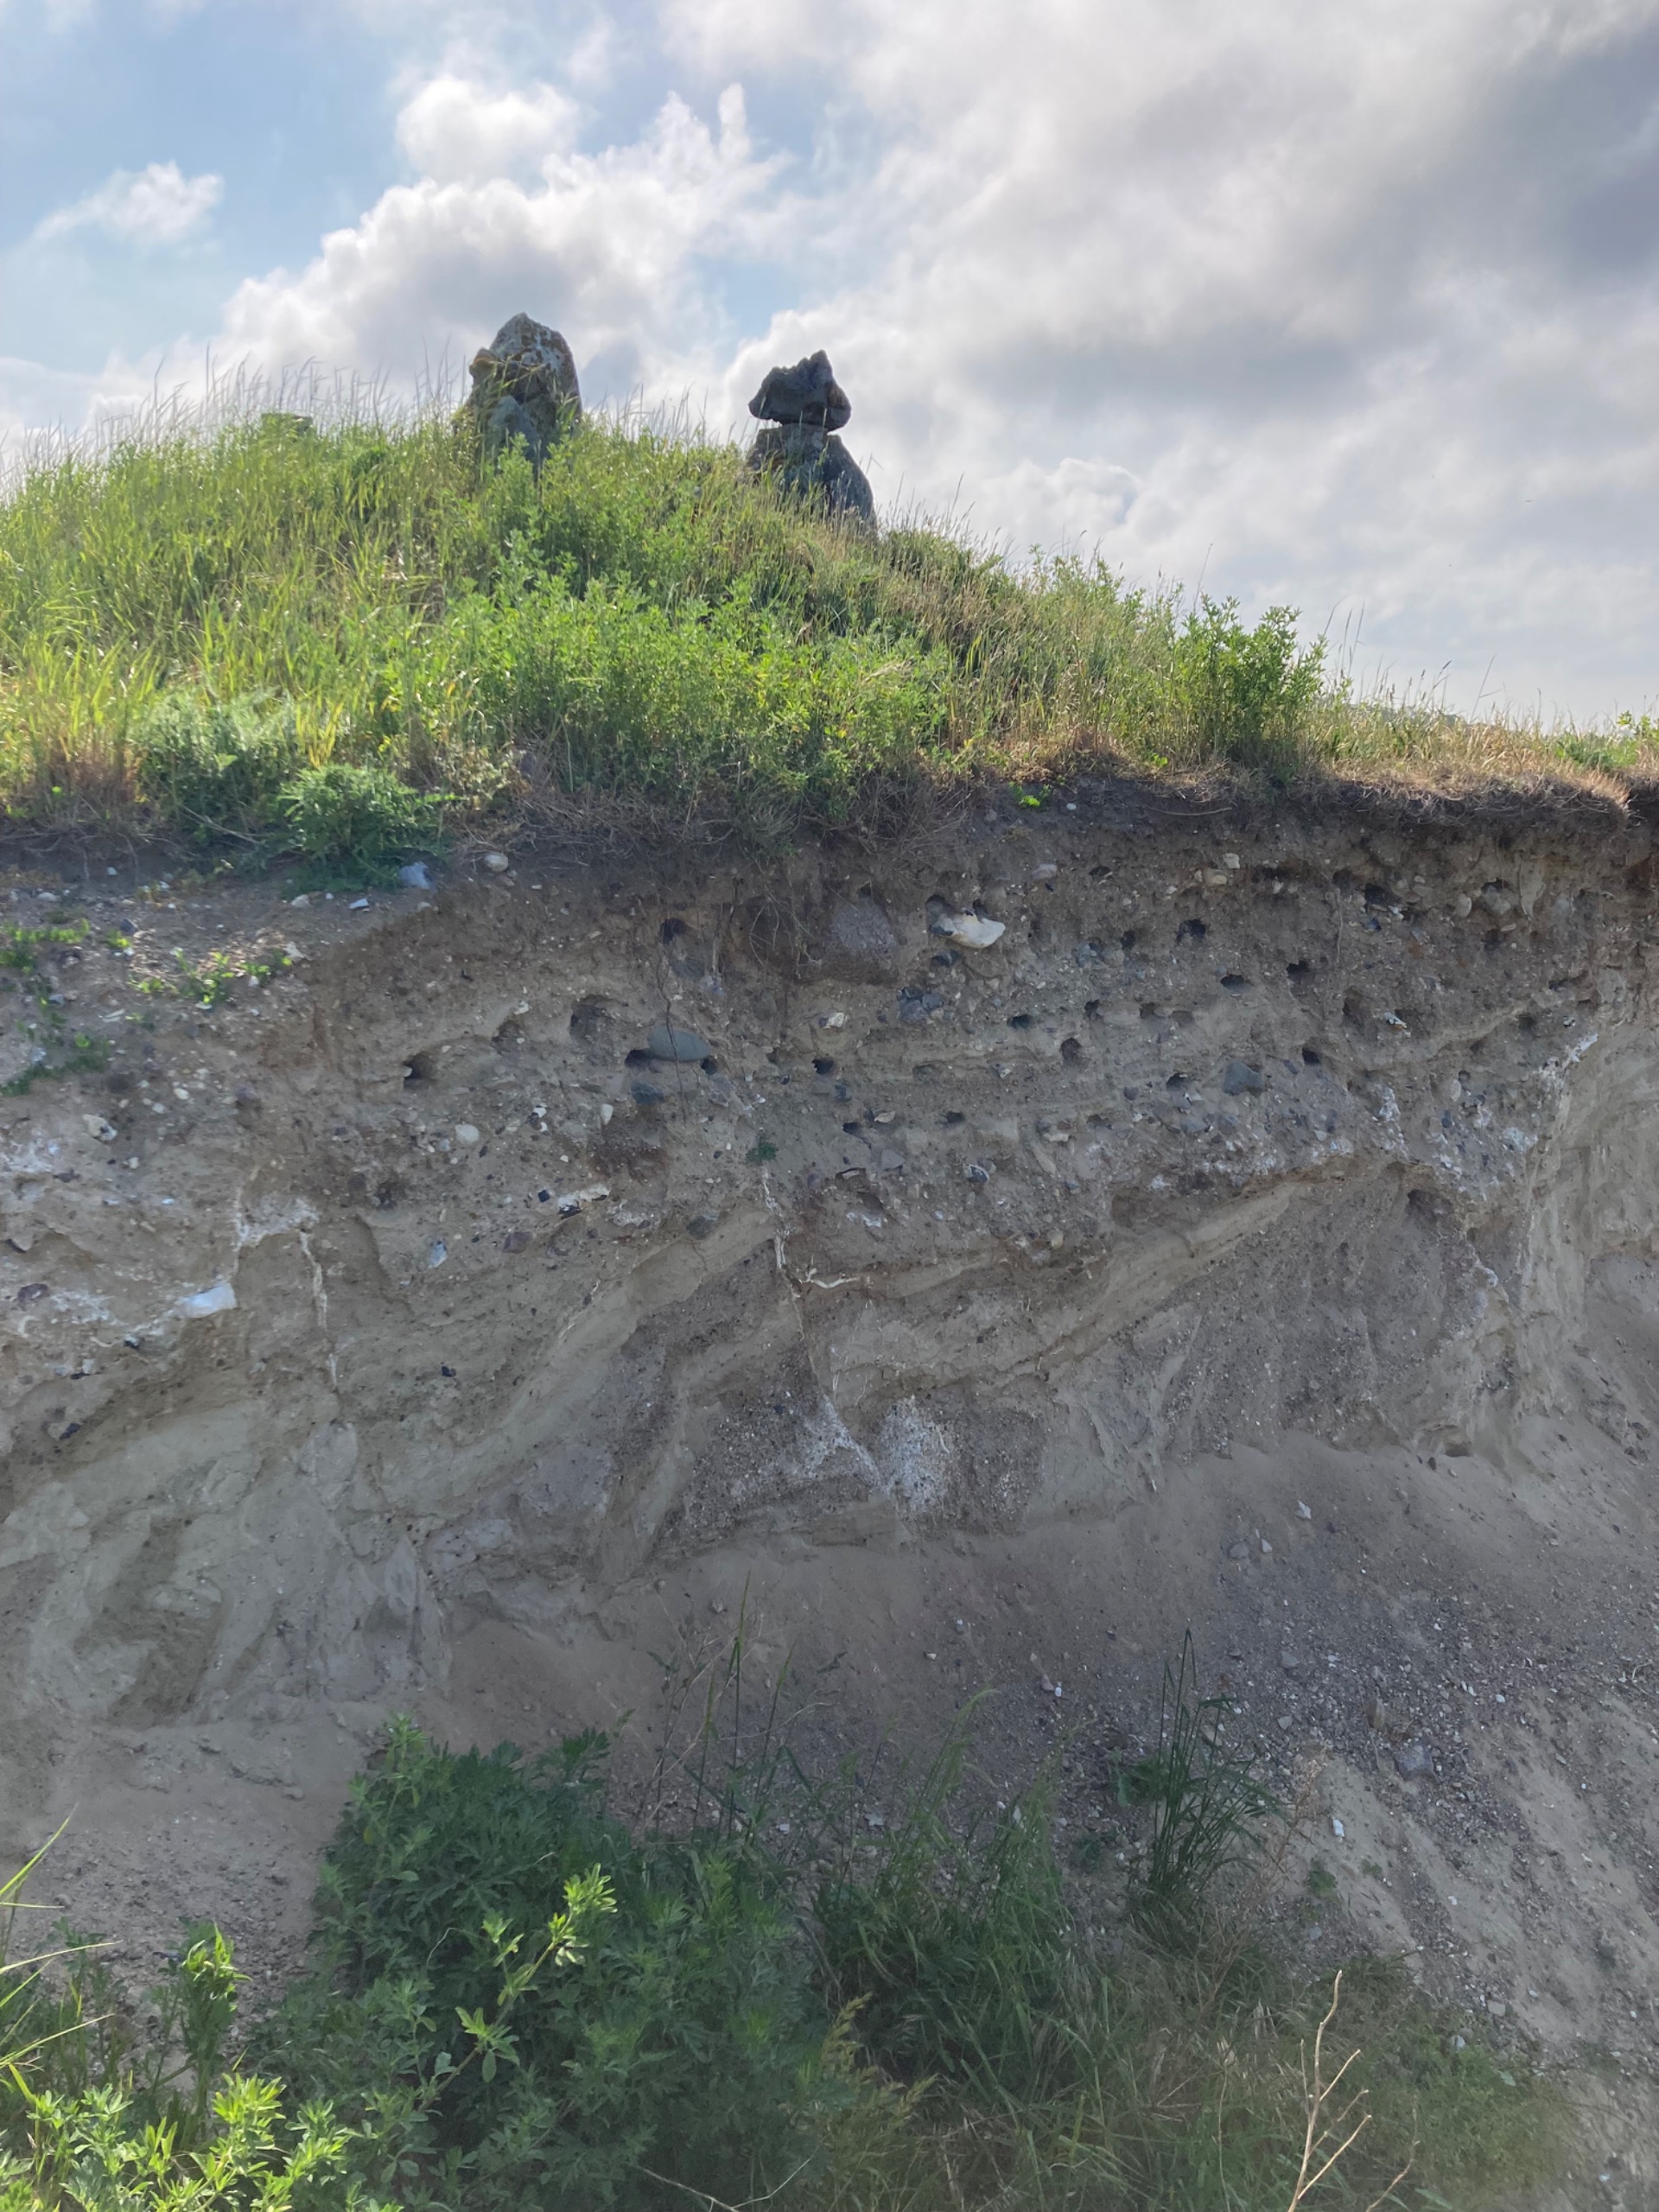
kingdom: Animalia
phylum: Chordata
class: Aves
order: Passeriformes
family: Hirundinidae
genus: Riparia
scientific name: Riparia riparia
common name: Digesvale
